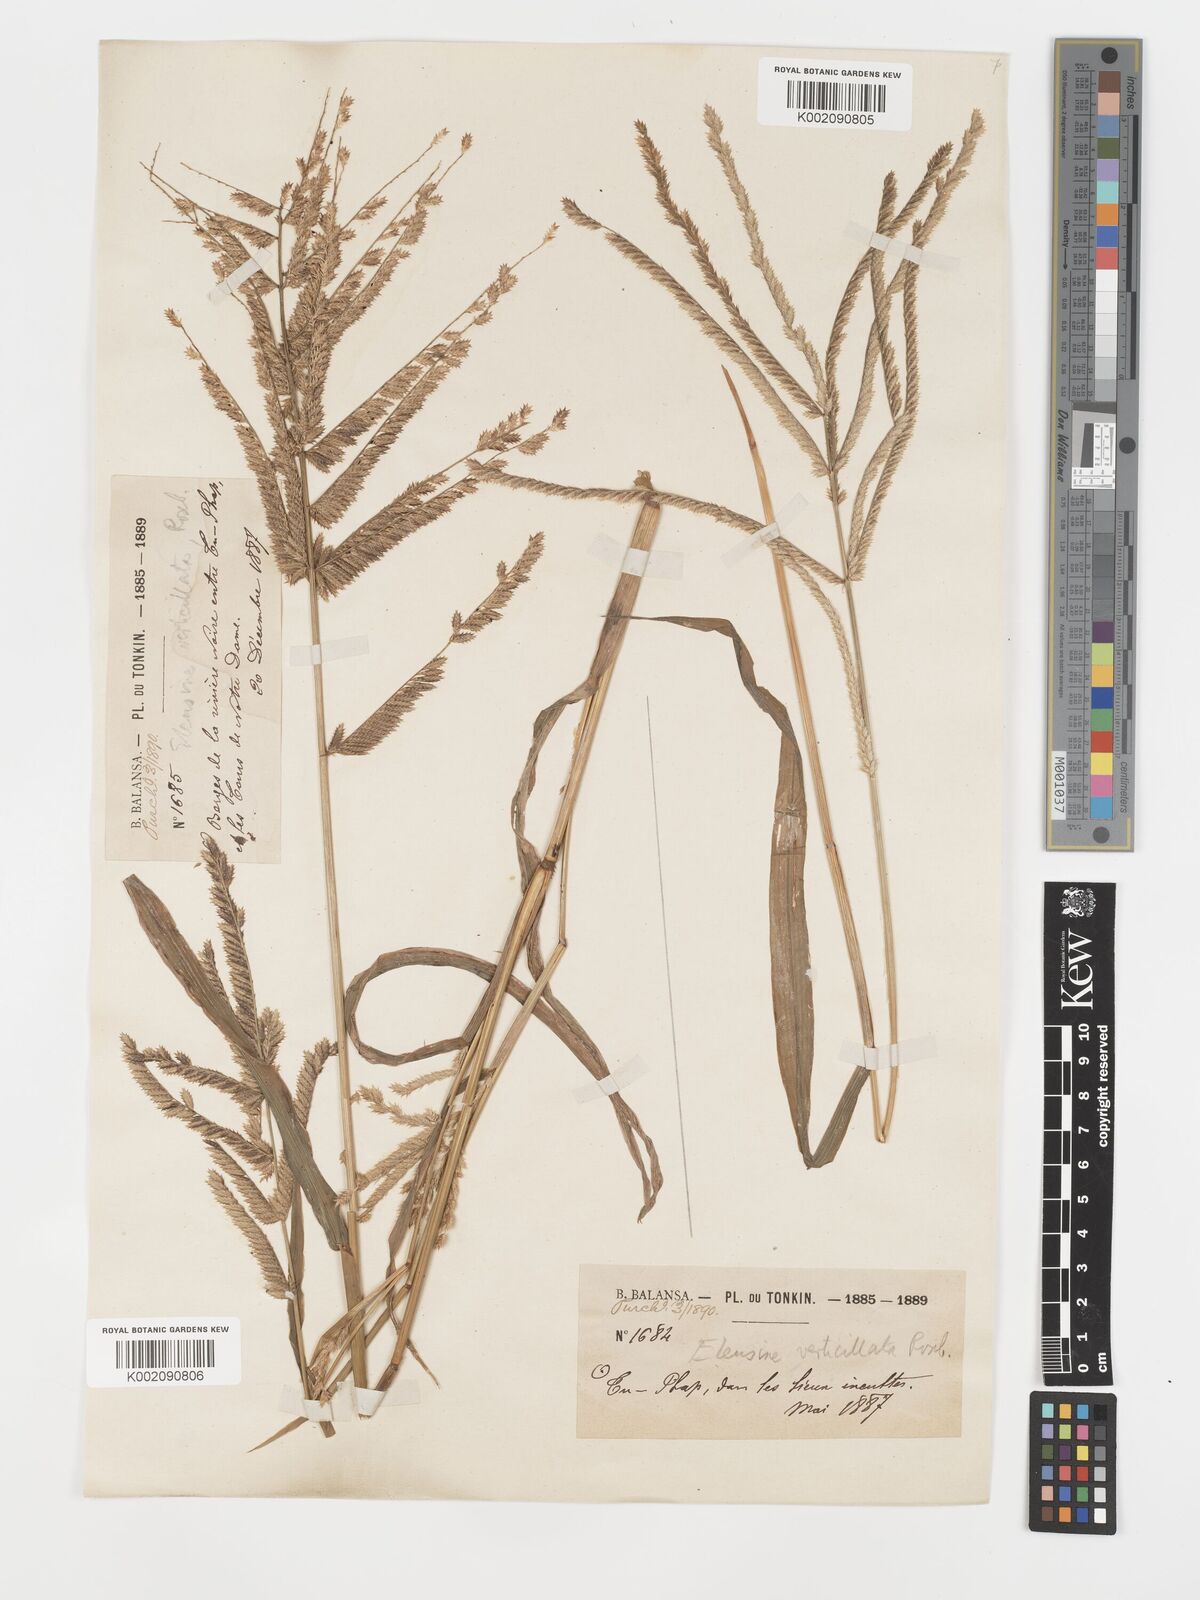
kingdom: Plantae
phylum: Tracheophyta
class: Liliopsida
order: Poales
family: Poaceae
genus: Acrachne
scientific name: Acrachne racemosa
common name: Goosegrass
